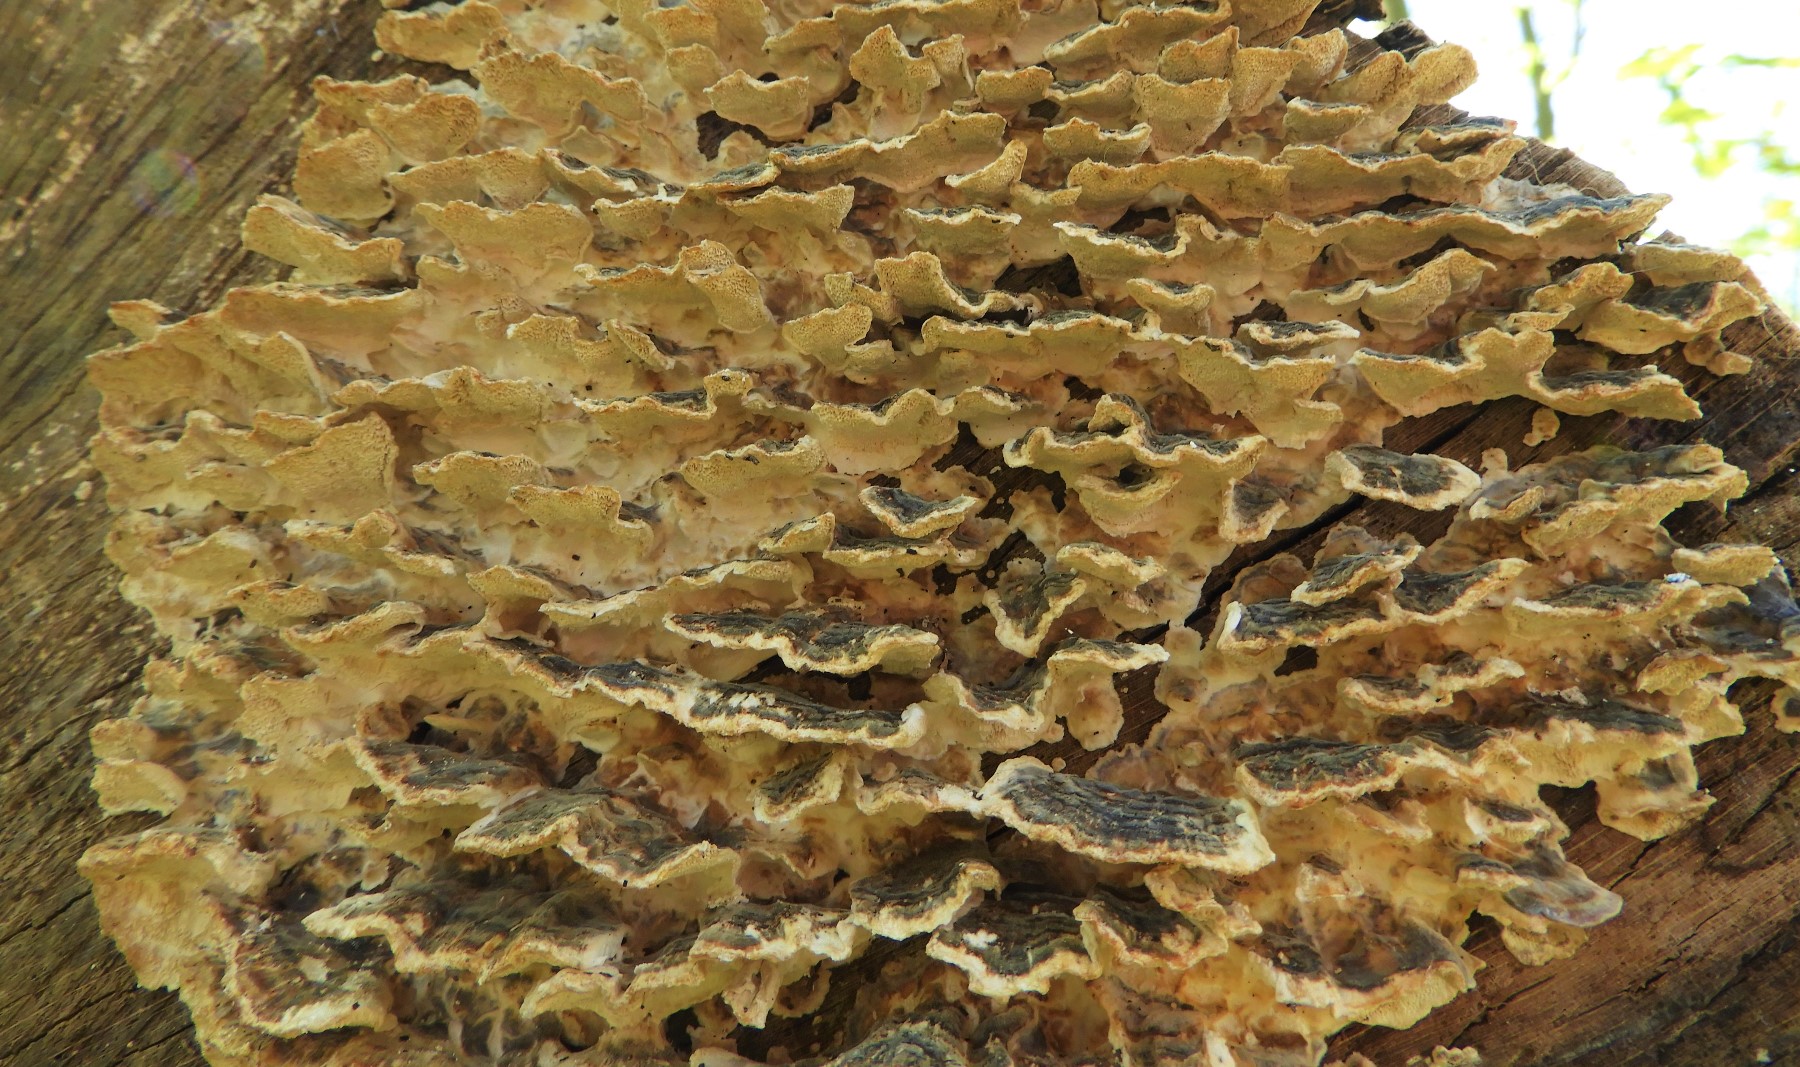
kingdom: Fungi
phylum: Basidiomycota
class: Agaricomycetes
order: Polyporales
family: Polyporaceae
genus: Trametes
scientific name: Trametes versicolor
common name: broget læderporesvamp
